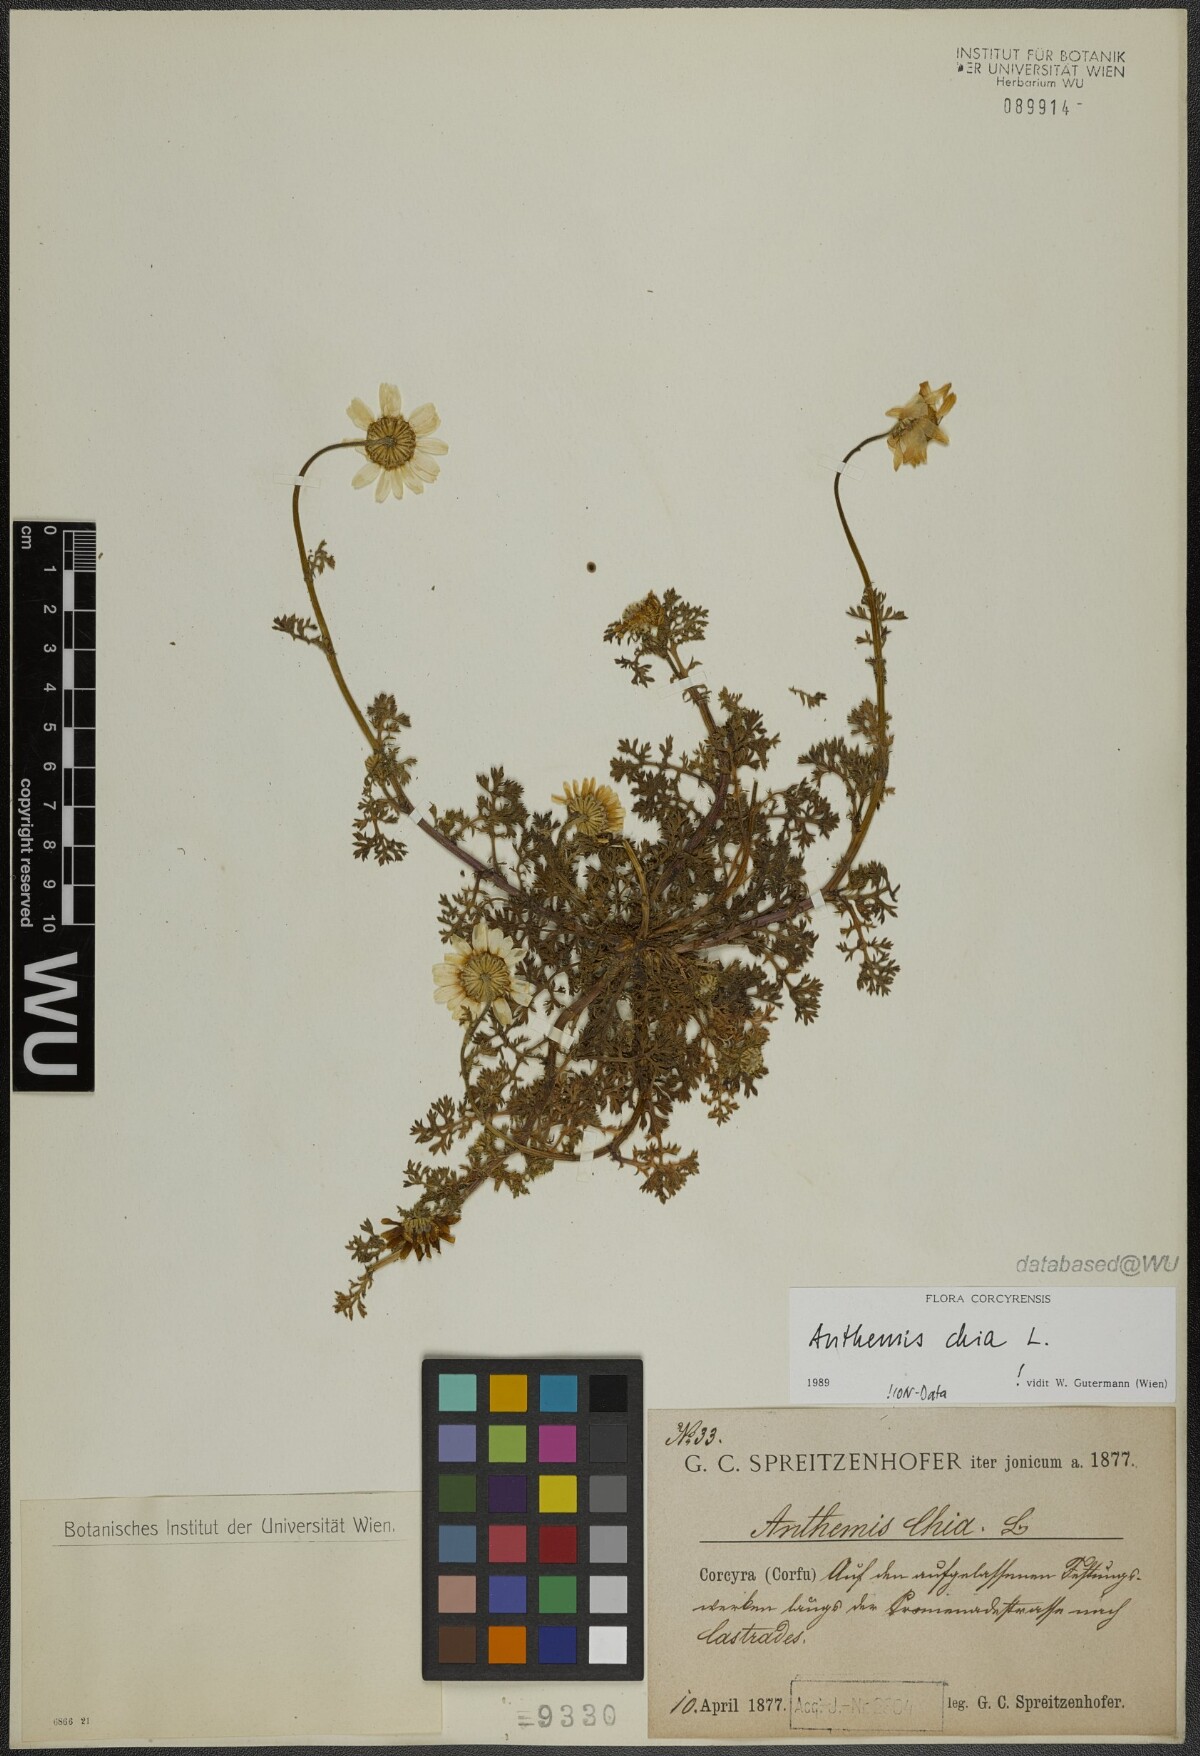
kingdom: Plantae
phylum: Tracheophyta
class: Magnoliopsida
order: Asterales
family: Asteraceae
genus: Anthemis
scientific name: Anthemis chia
